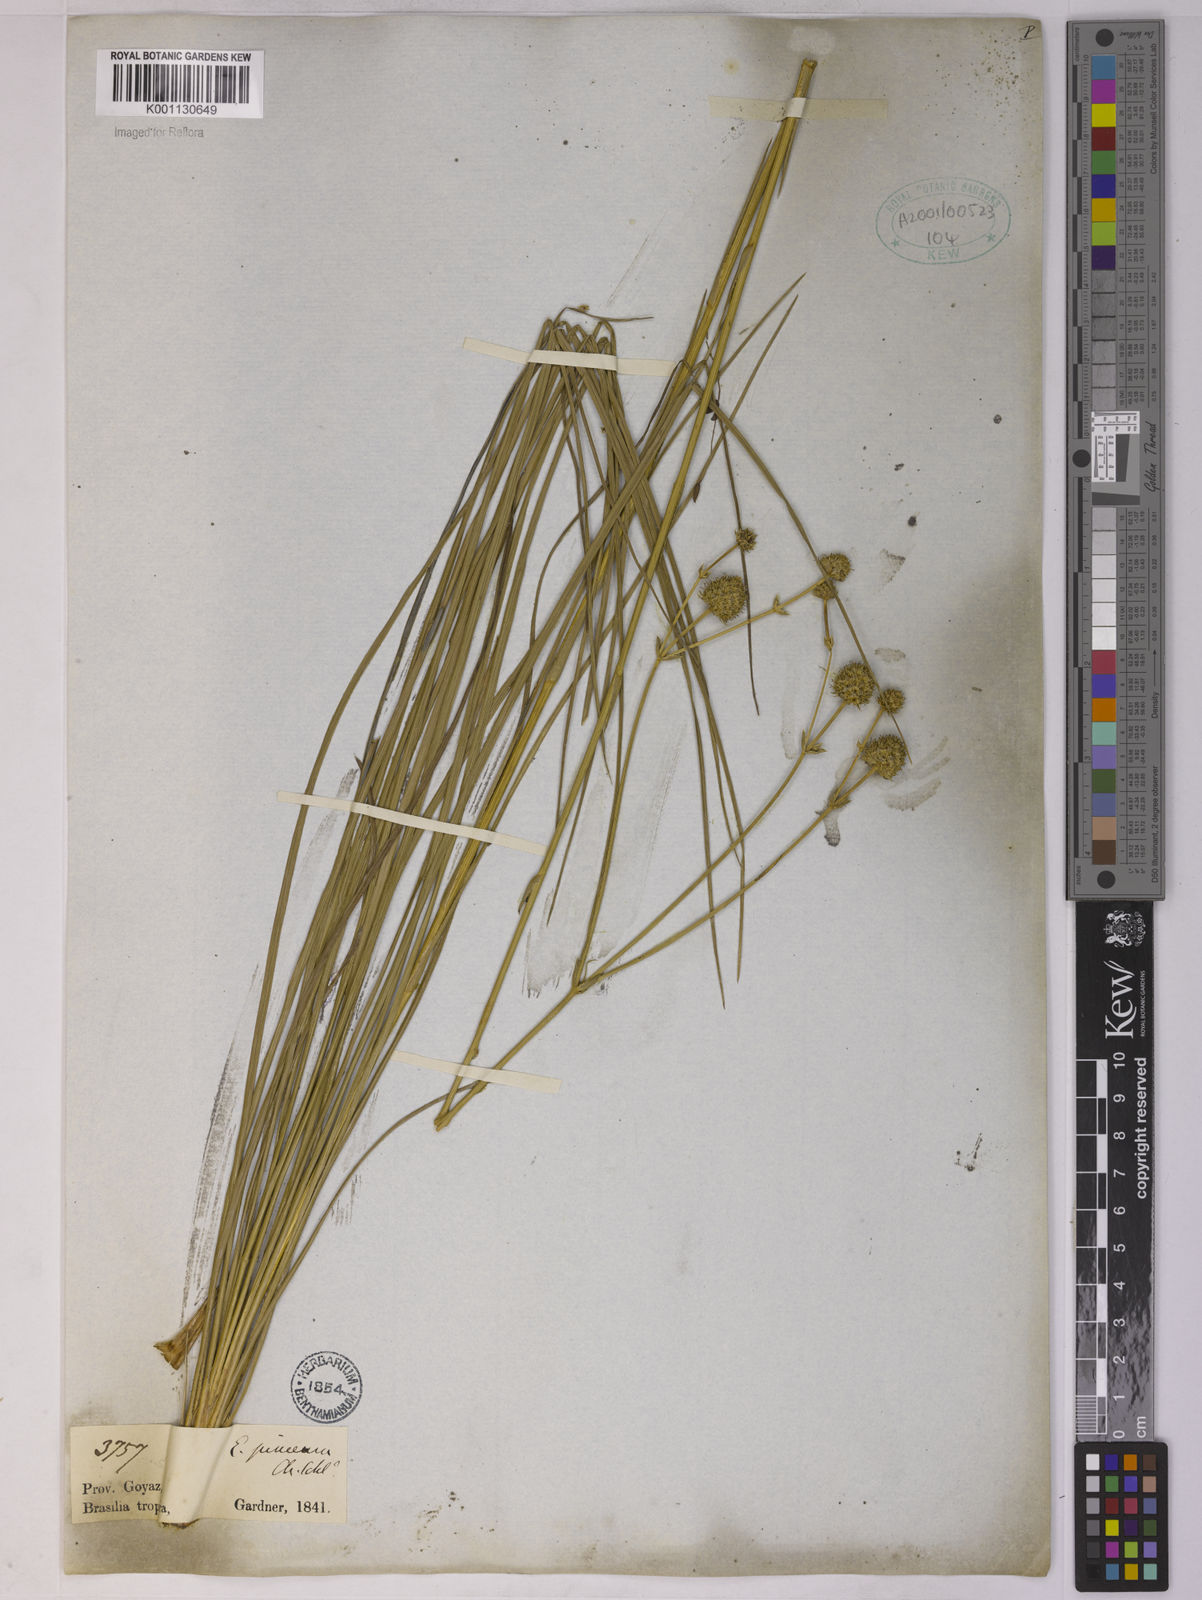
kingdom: Plantae
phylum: Tracheophyta
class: Magnoliopsida
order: Apiales
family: Apiaceae
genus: Eryngium
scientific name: Eryngium junceum
